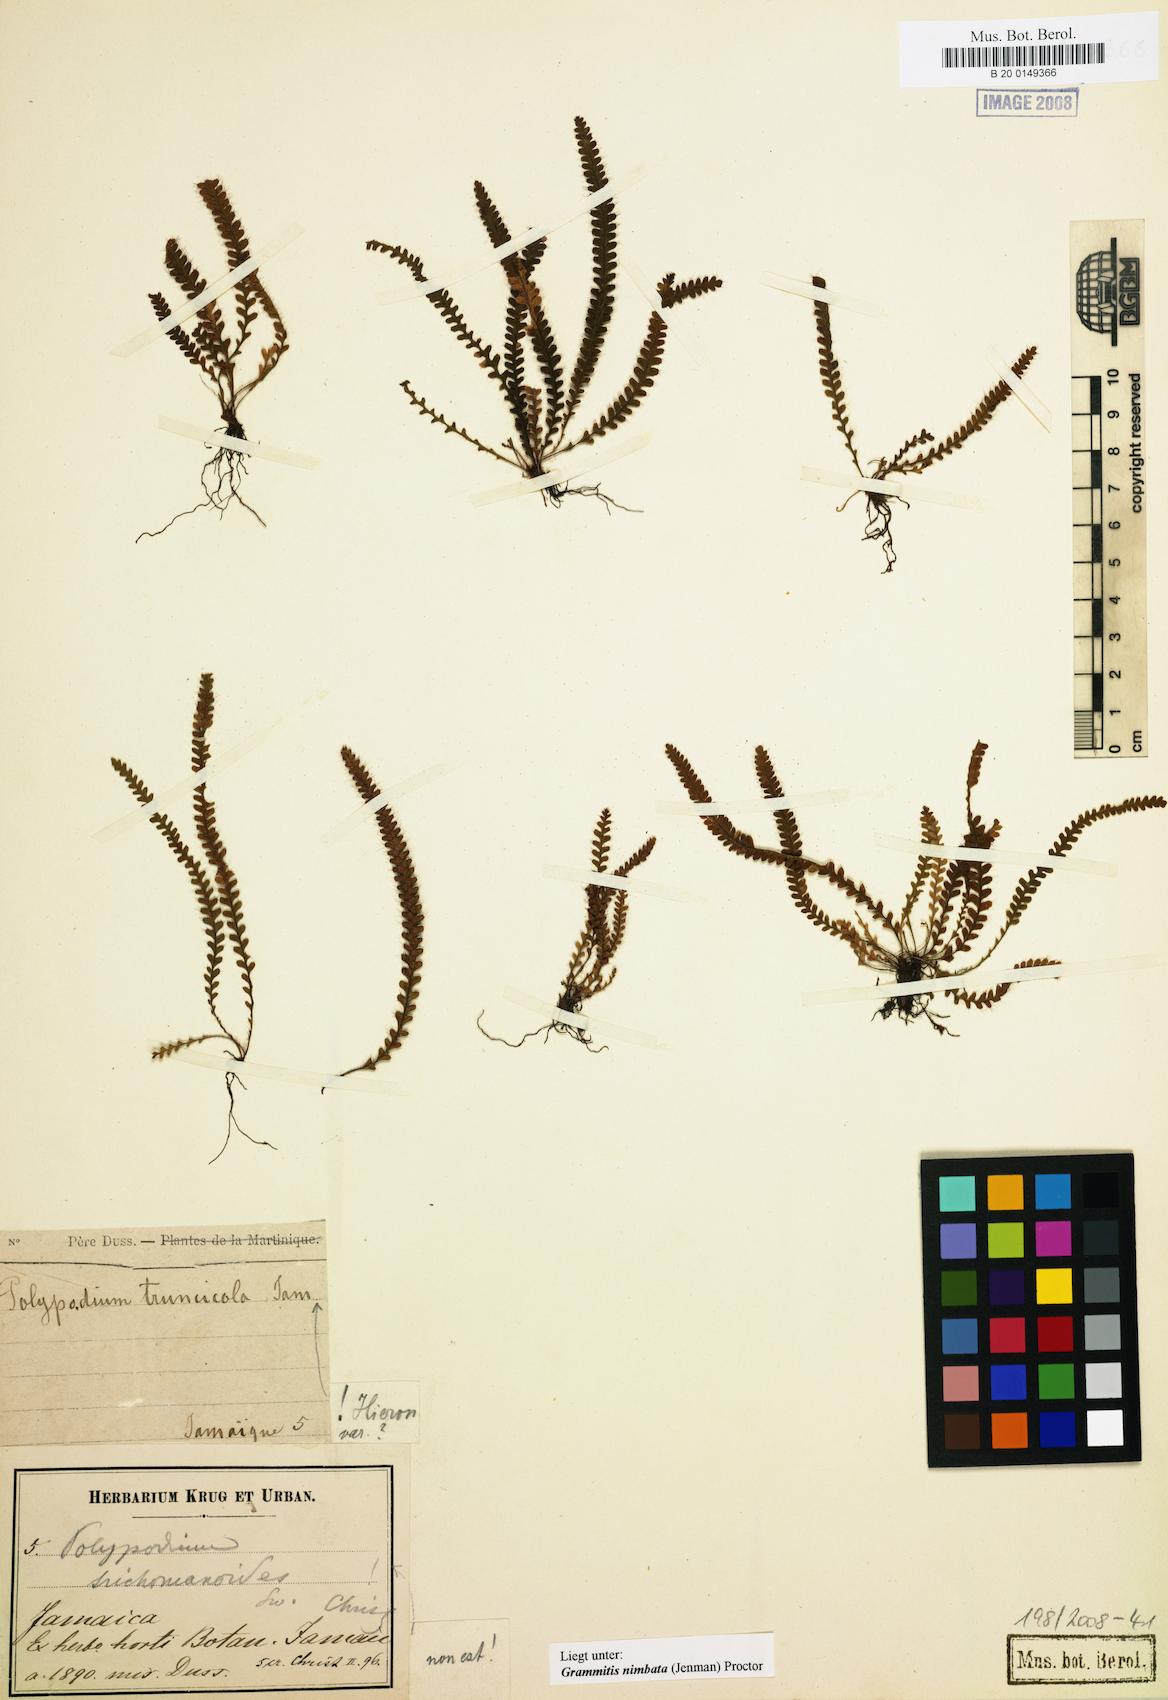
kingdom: Plantae
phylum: Tracheophyta
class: Polypodiopsida
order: Polypodiales
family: Polypodiaceae
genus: Moranopteris
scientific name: Moranopteris basiattenuata
